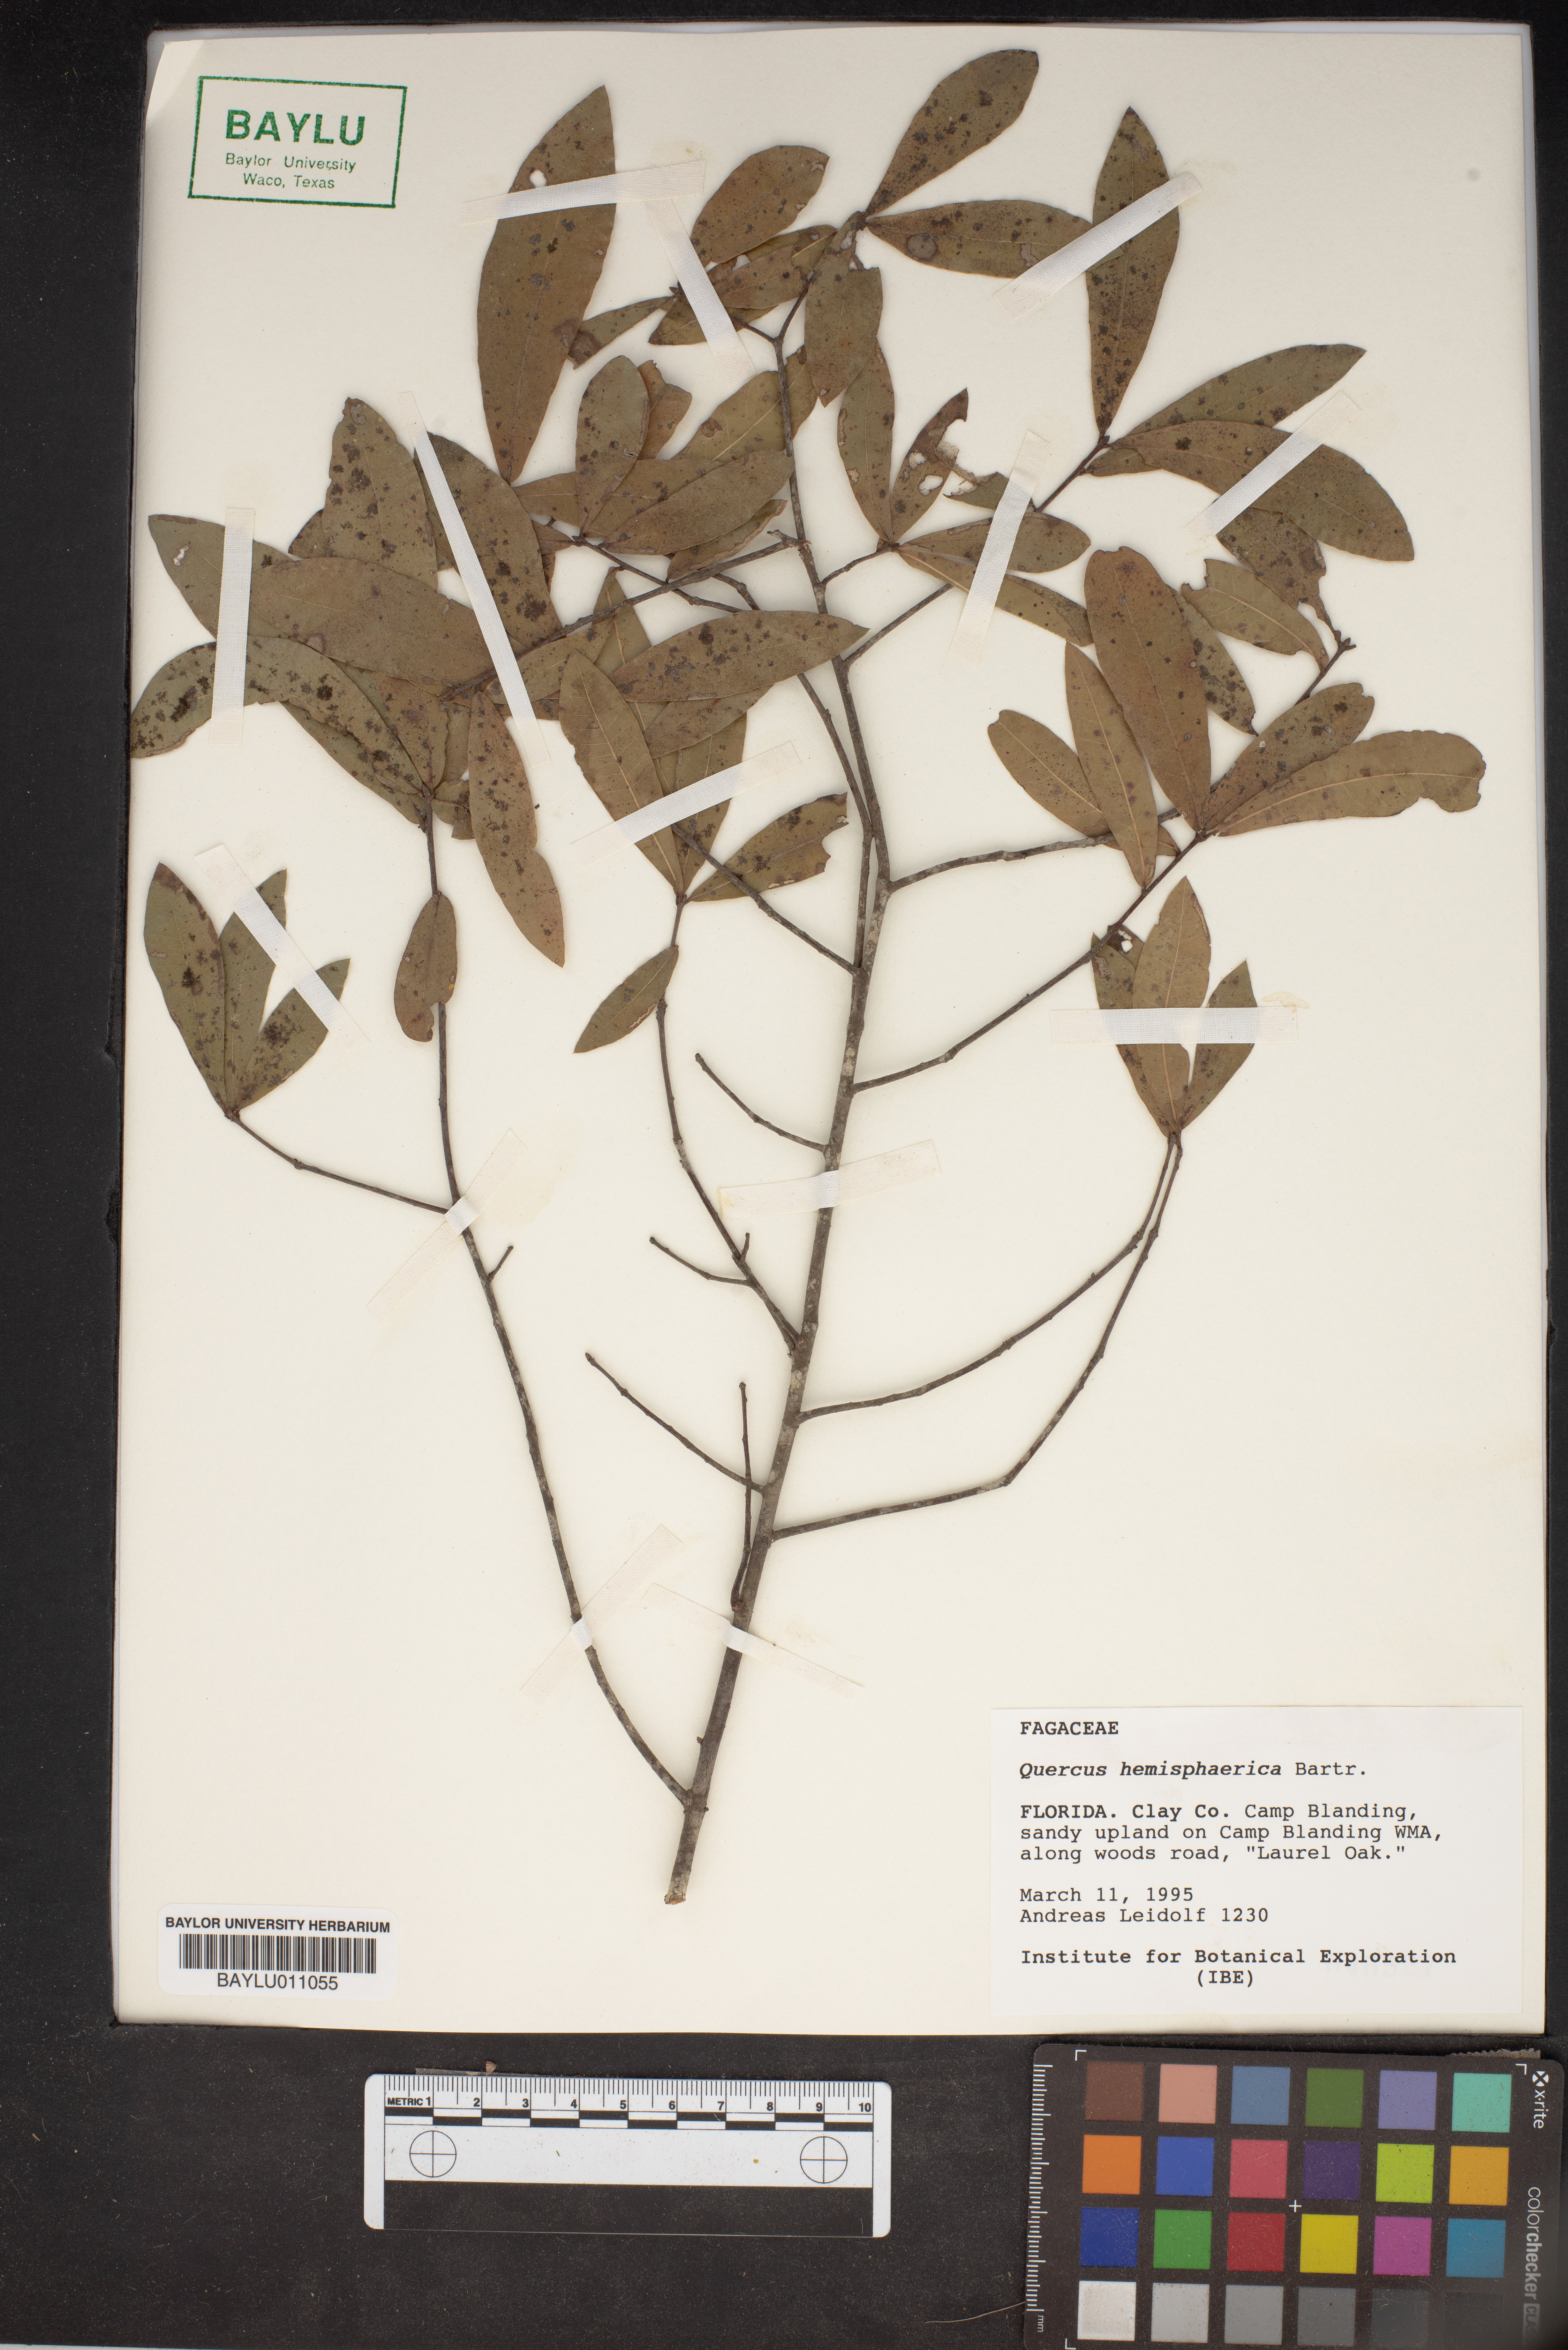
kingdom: Plantae
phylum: Tracheophyta
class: Magnoliopsida
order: Fagales
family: Fagaceae
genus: Quercus
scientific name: Quercus hemisphaerica
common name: Darlington oak
